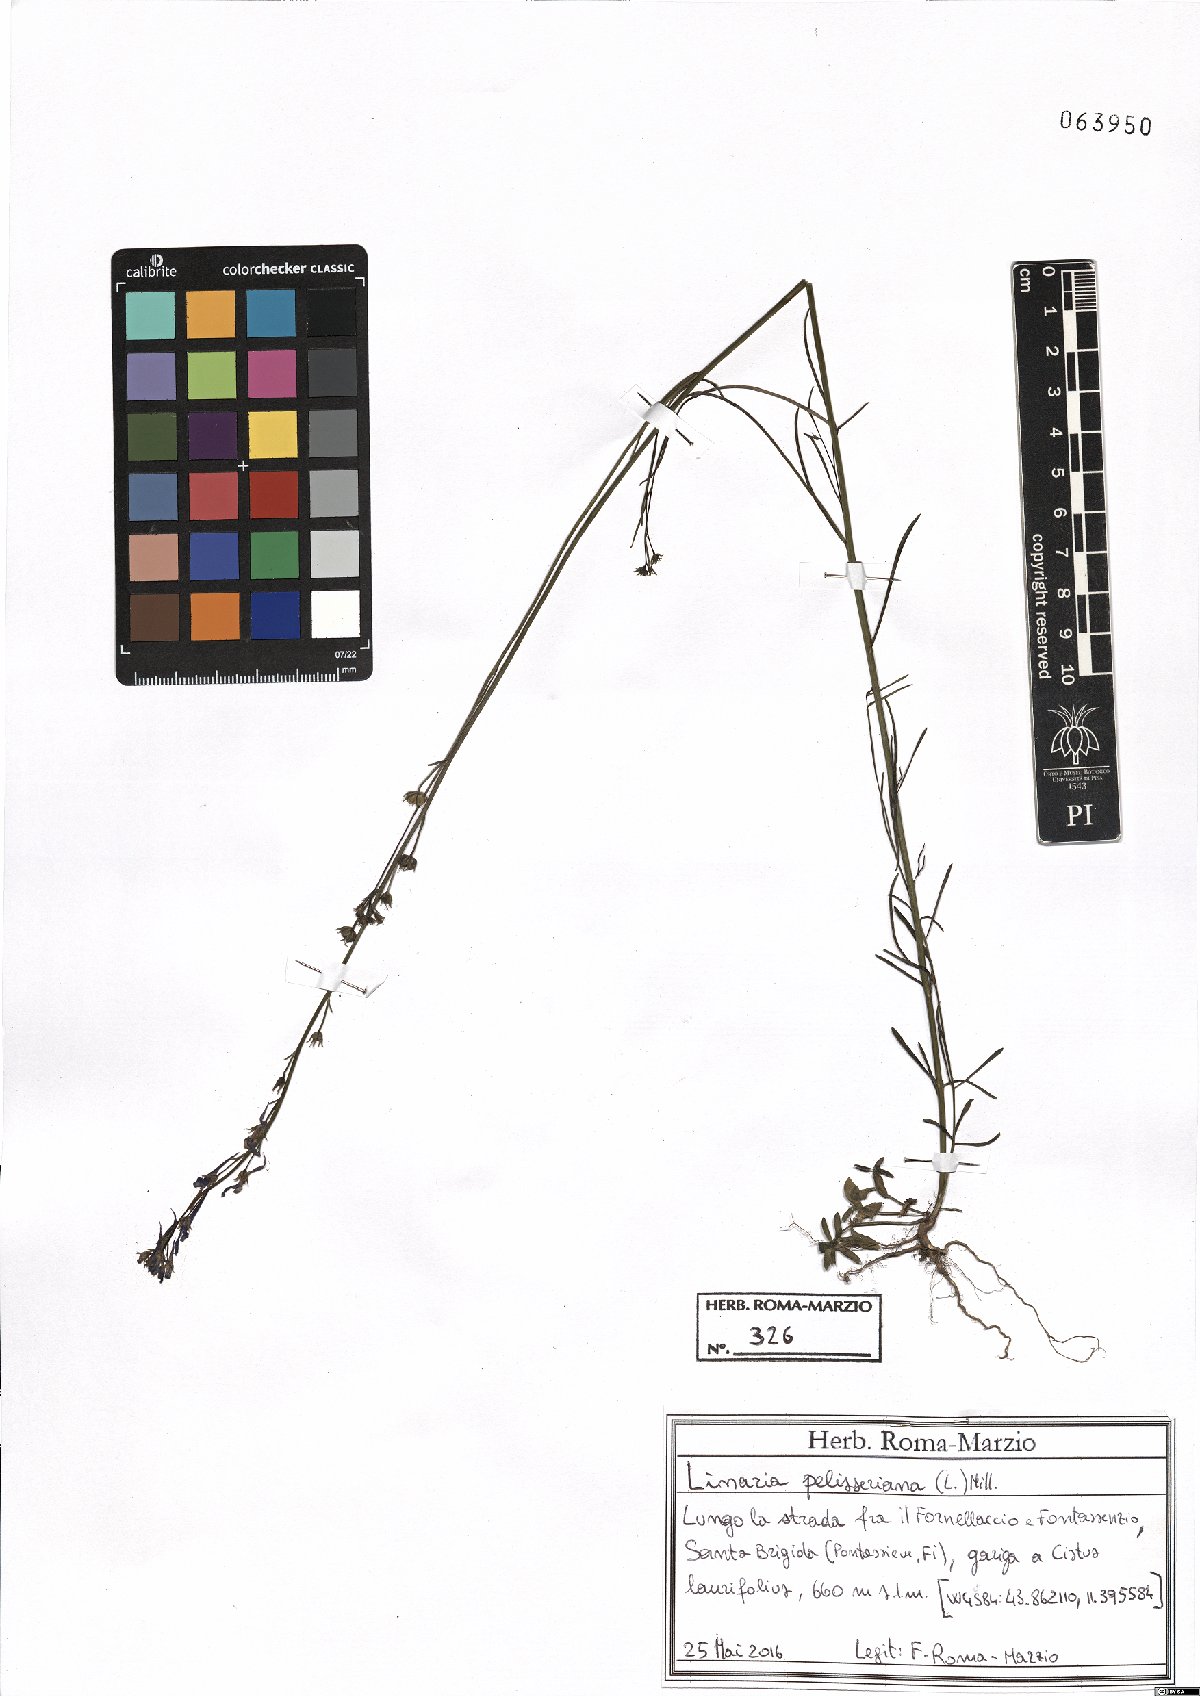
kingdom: Plantae
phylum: Tracheophyta
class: Magnoliopsida
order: Lamiales
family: Plantaginaceae
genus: Linaria
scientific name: Linaria pelisseriana
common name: Jersey toadflax
